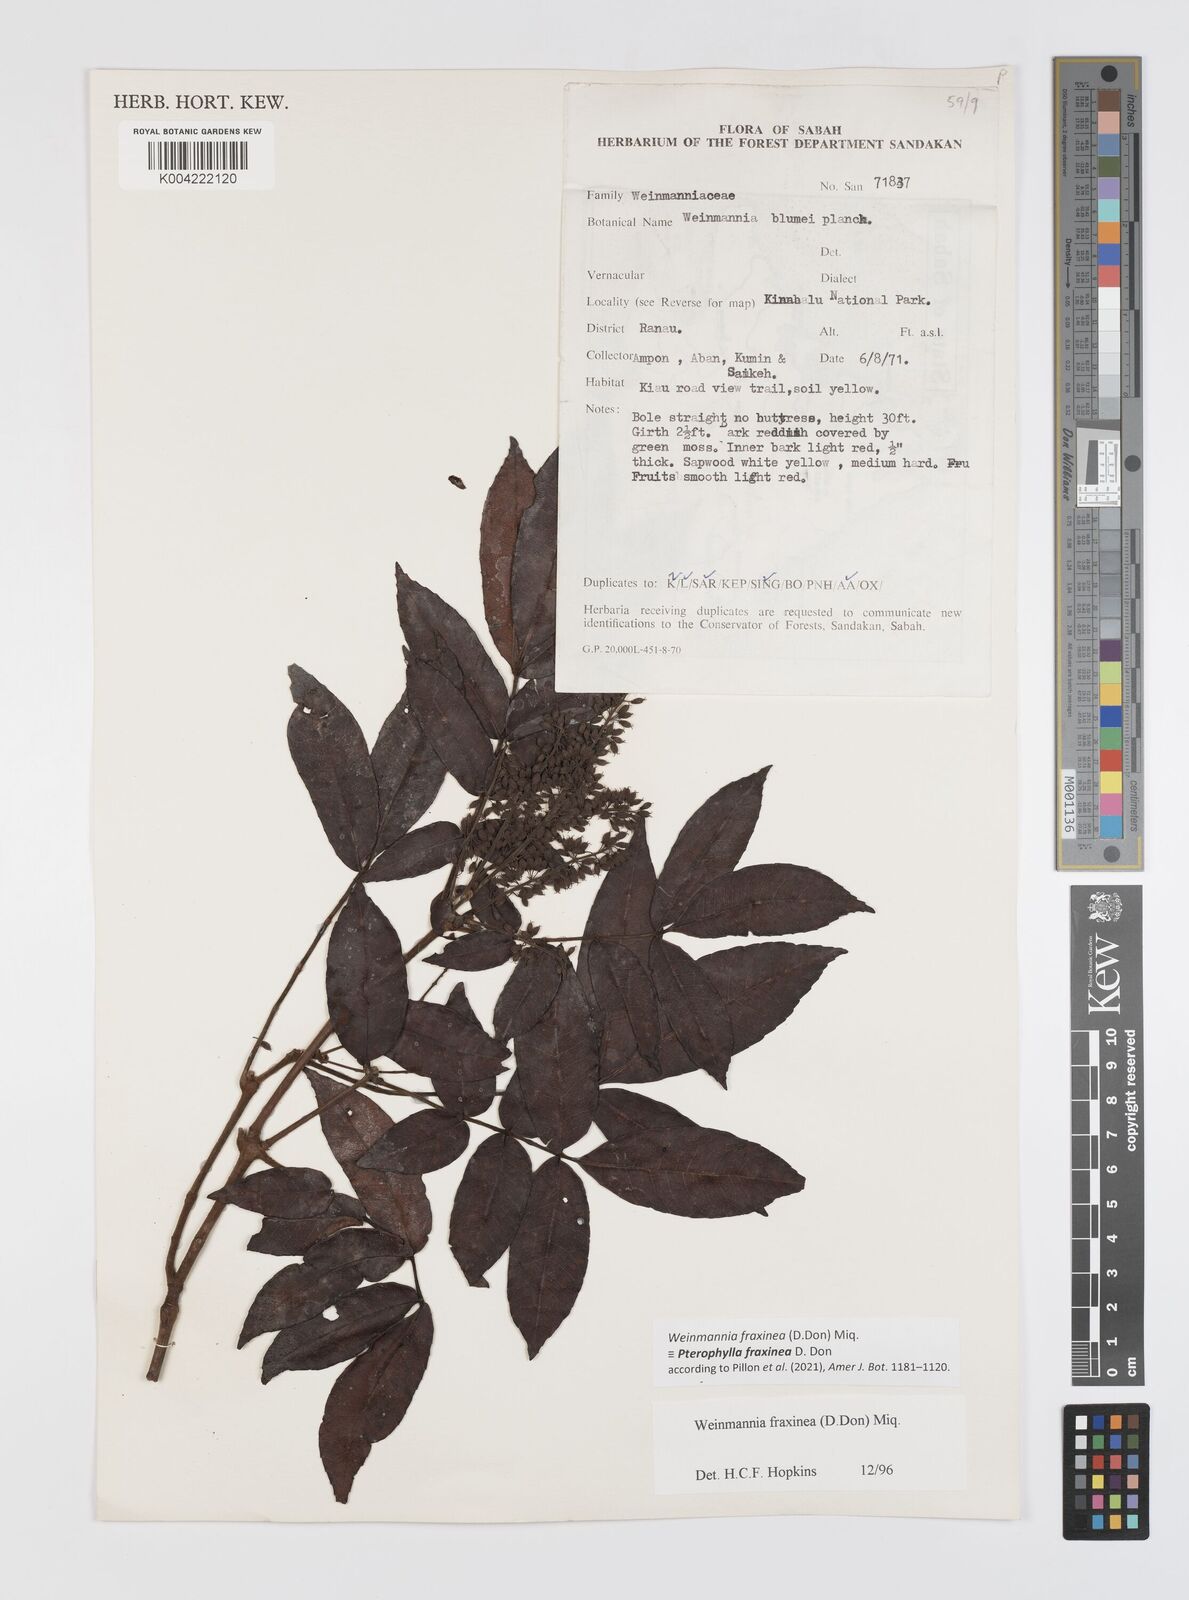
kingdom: Plantae
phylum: Tracheophyta
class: Magnoliopsida
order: Oxalidales
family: Cunoniaceae
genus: Pterophylla
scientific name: Pterophylla fraxinea
